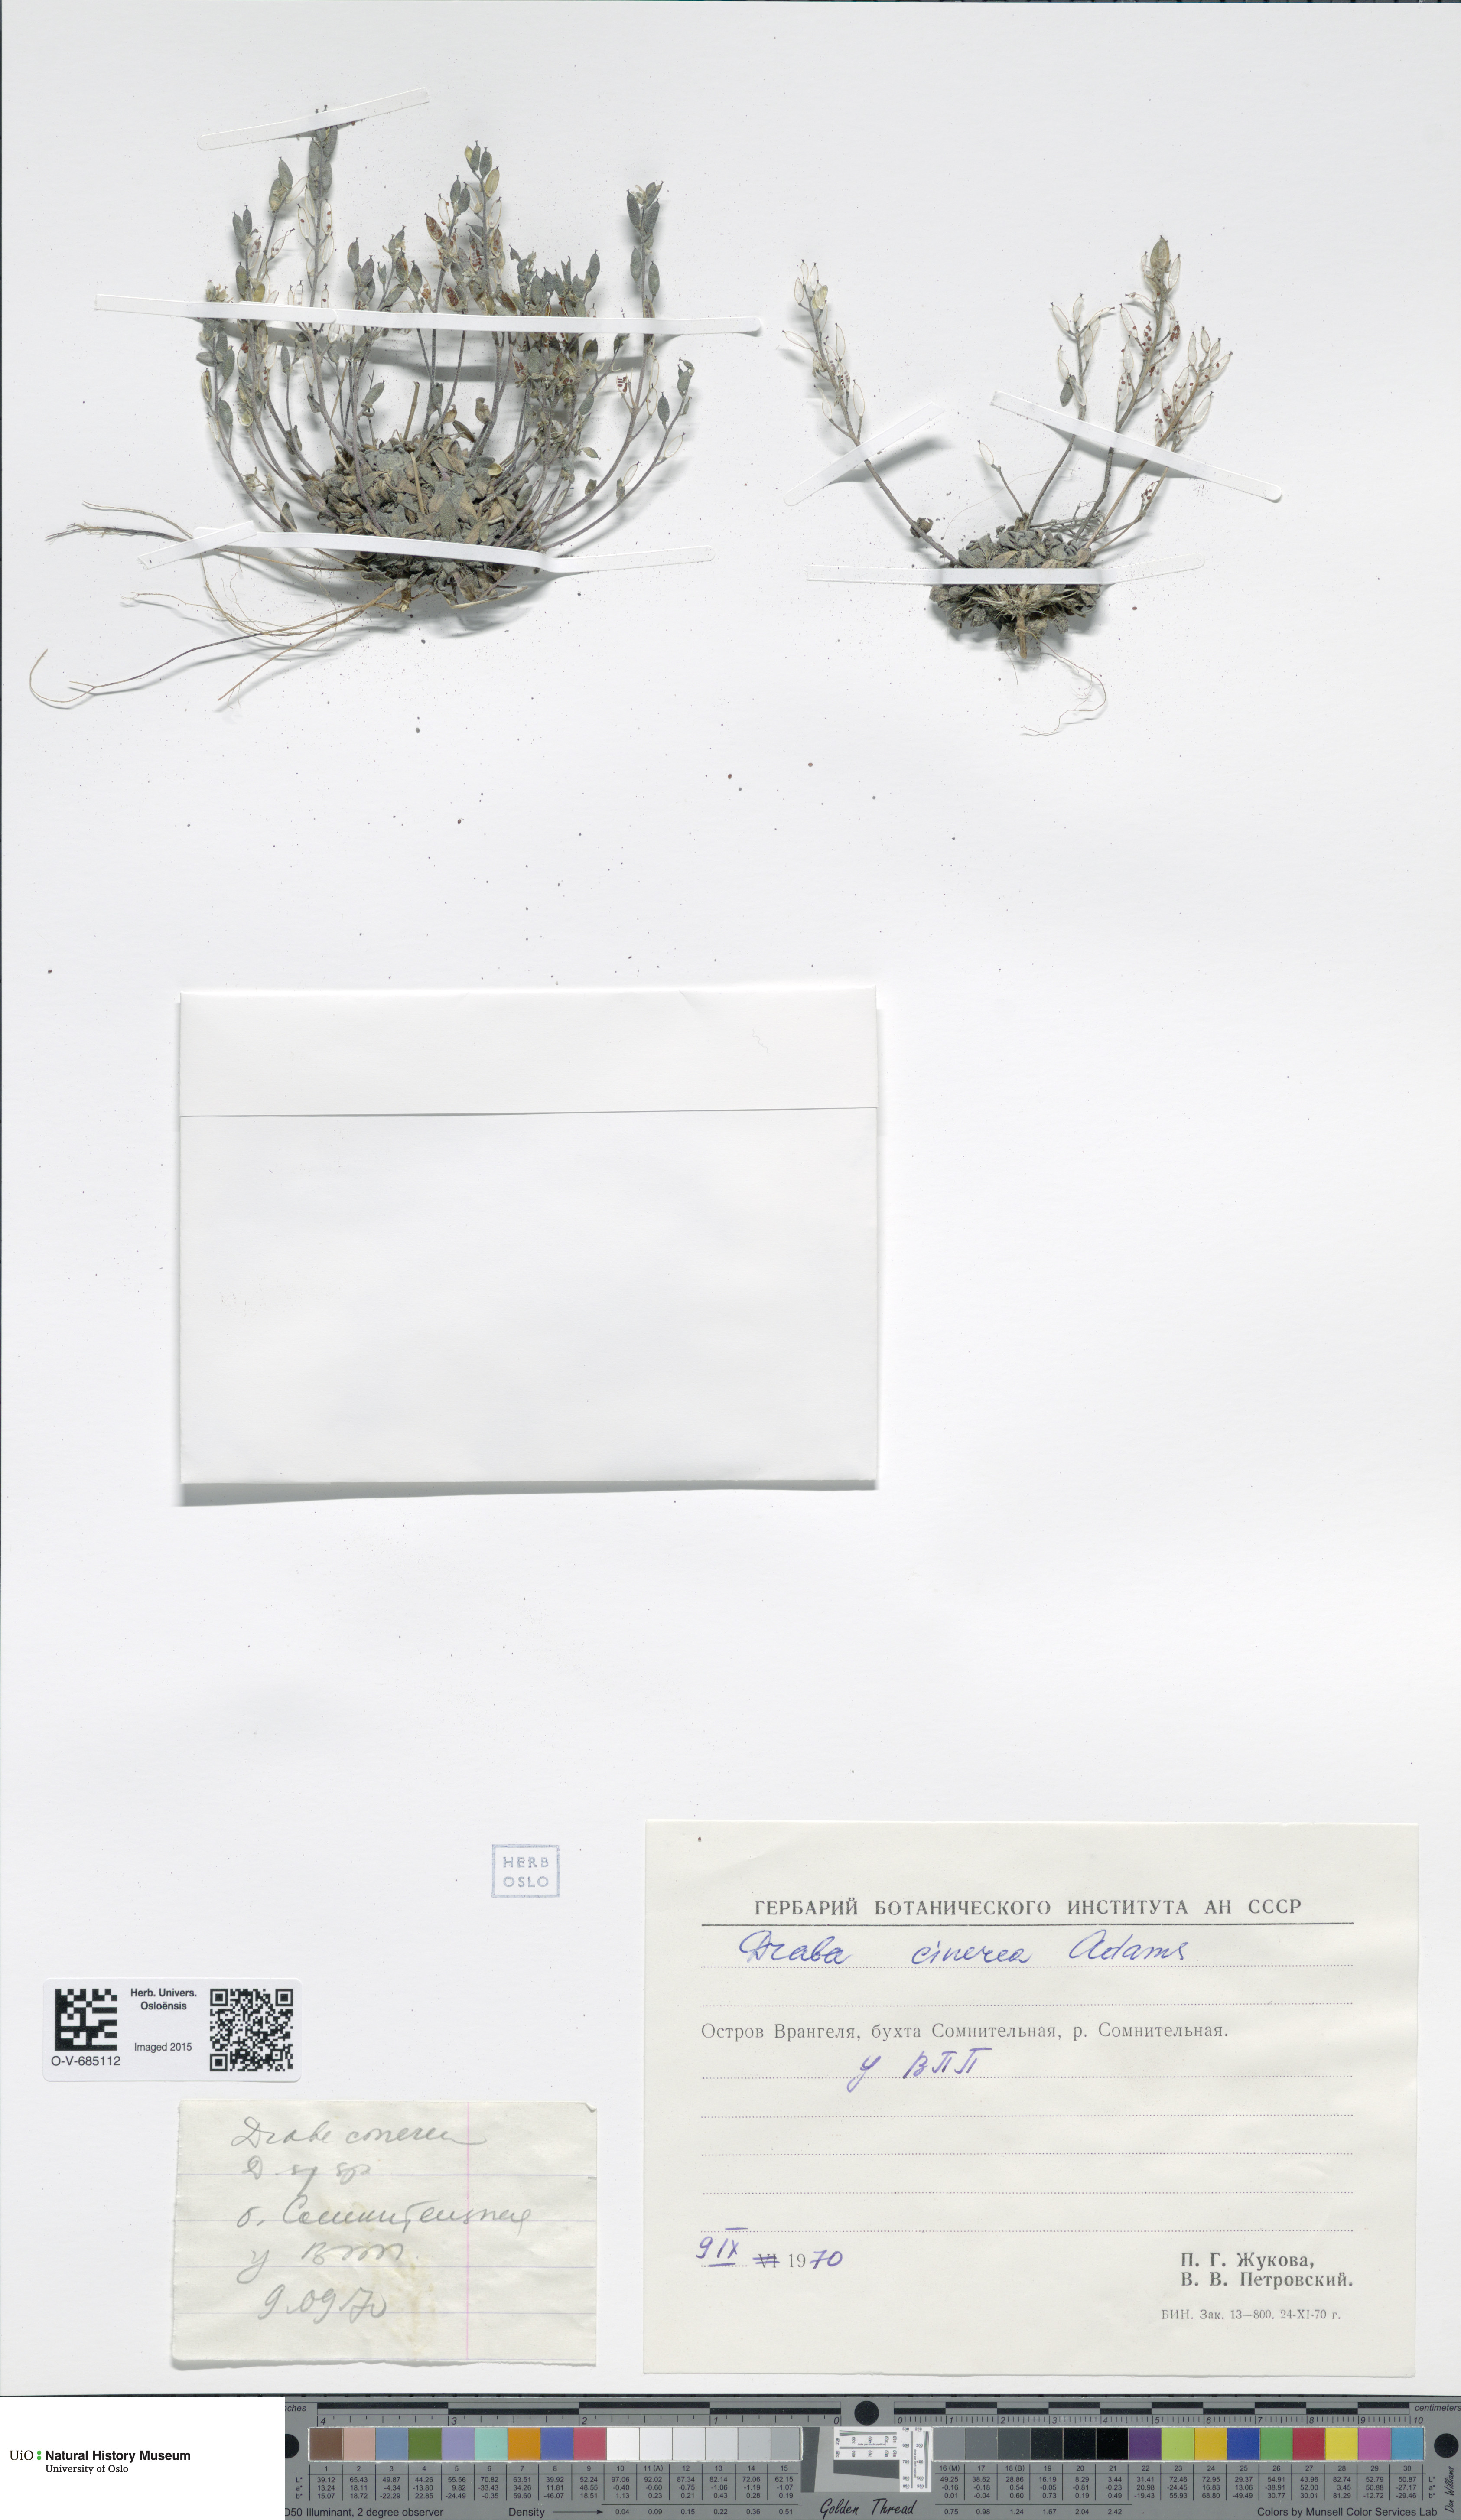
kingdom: Plantae
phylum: Tracheophyta
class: Magnoliopsida
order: Brassicales
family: Brassicaceae
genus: Draba
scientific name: Draba cinerea
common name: Ash-coloured whitlow-grass
